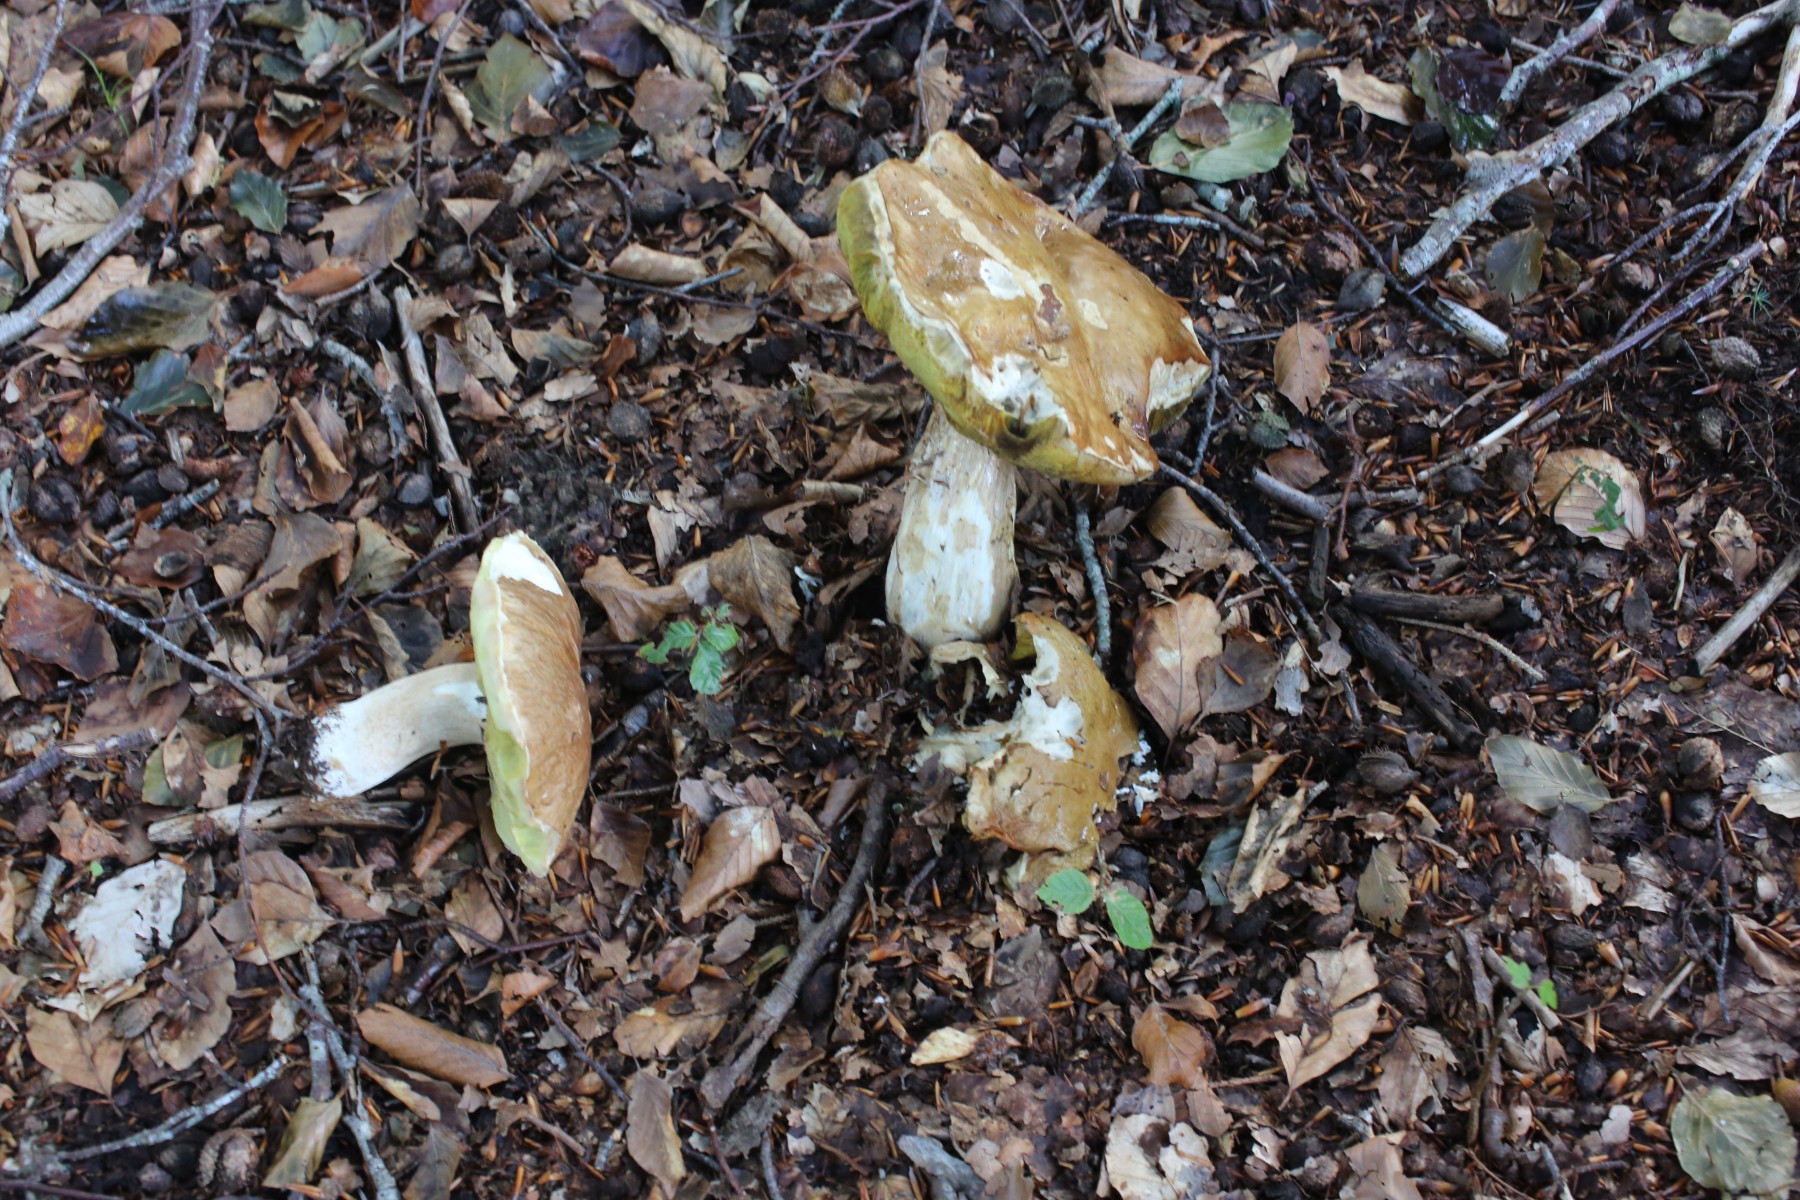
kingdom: Fungi
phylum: Basidiomycota
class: Agaricomycetes
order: Boletales
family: Boletaceae
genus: Boletus
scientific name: Boletus edulis
